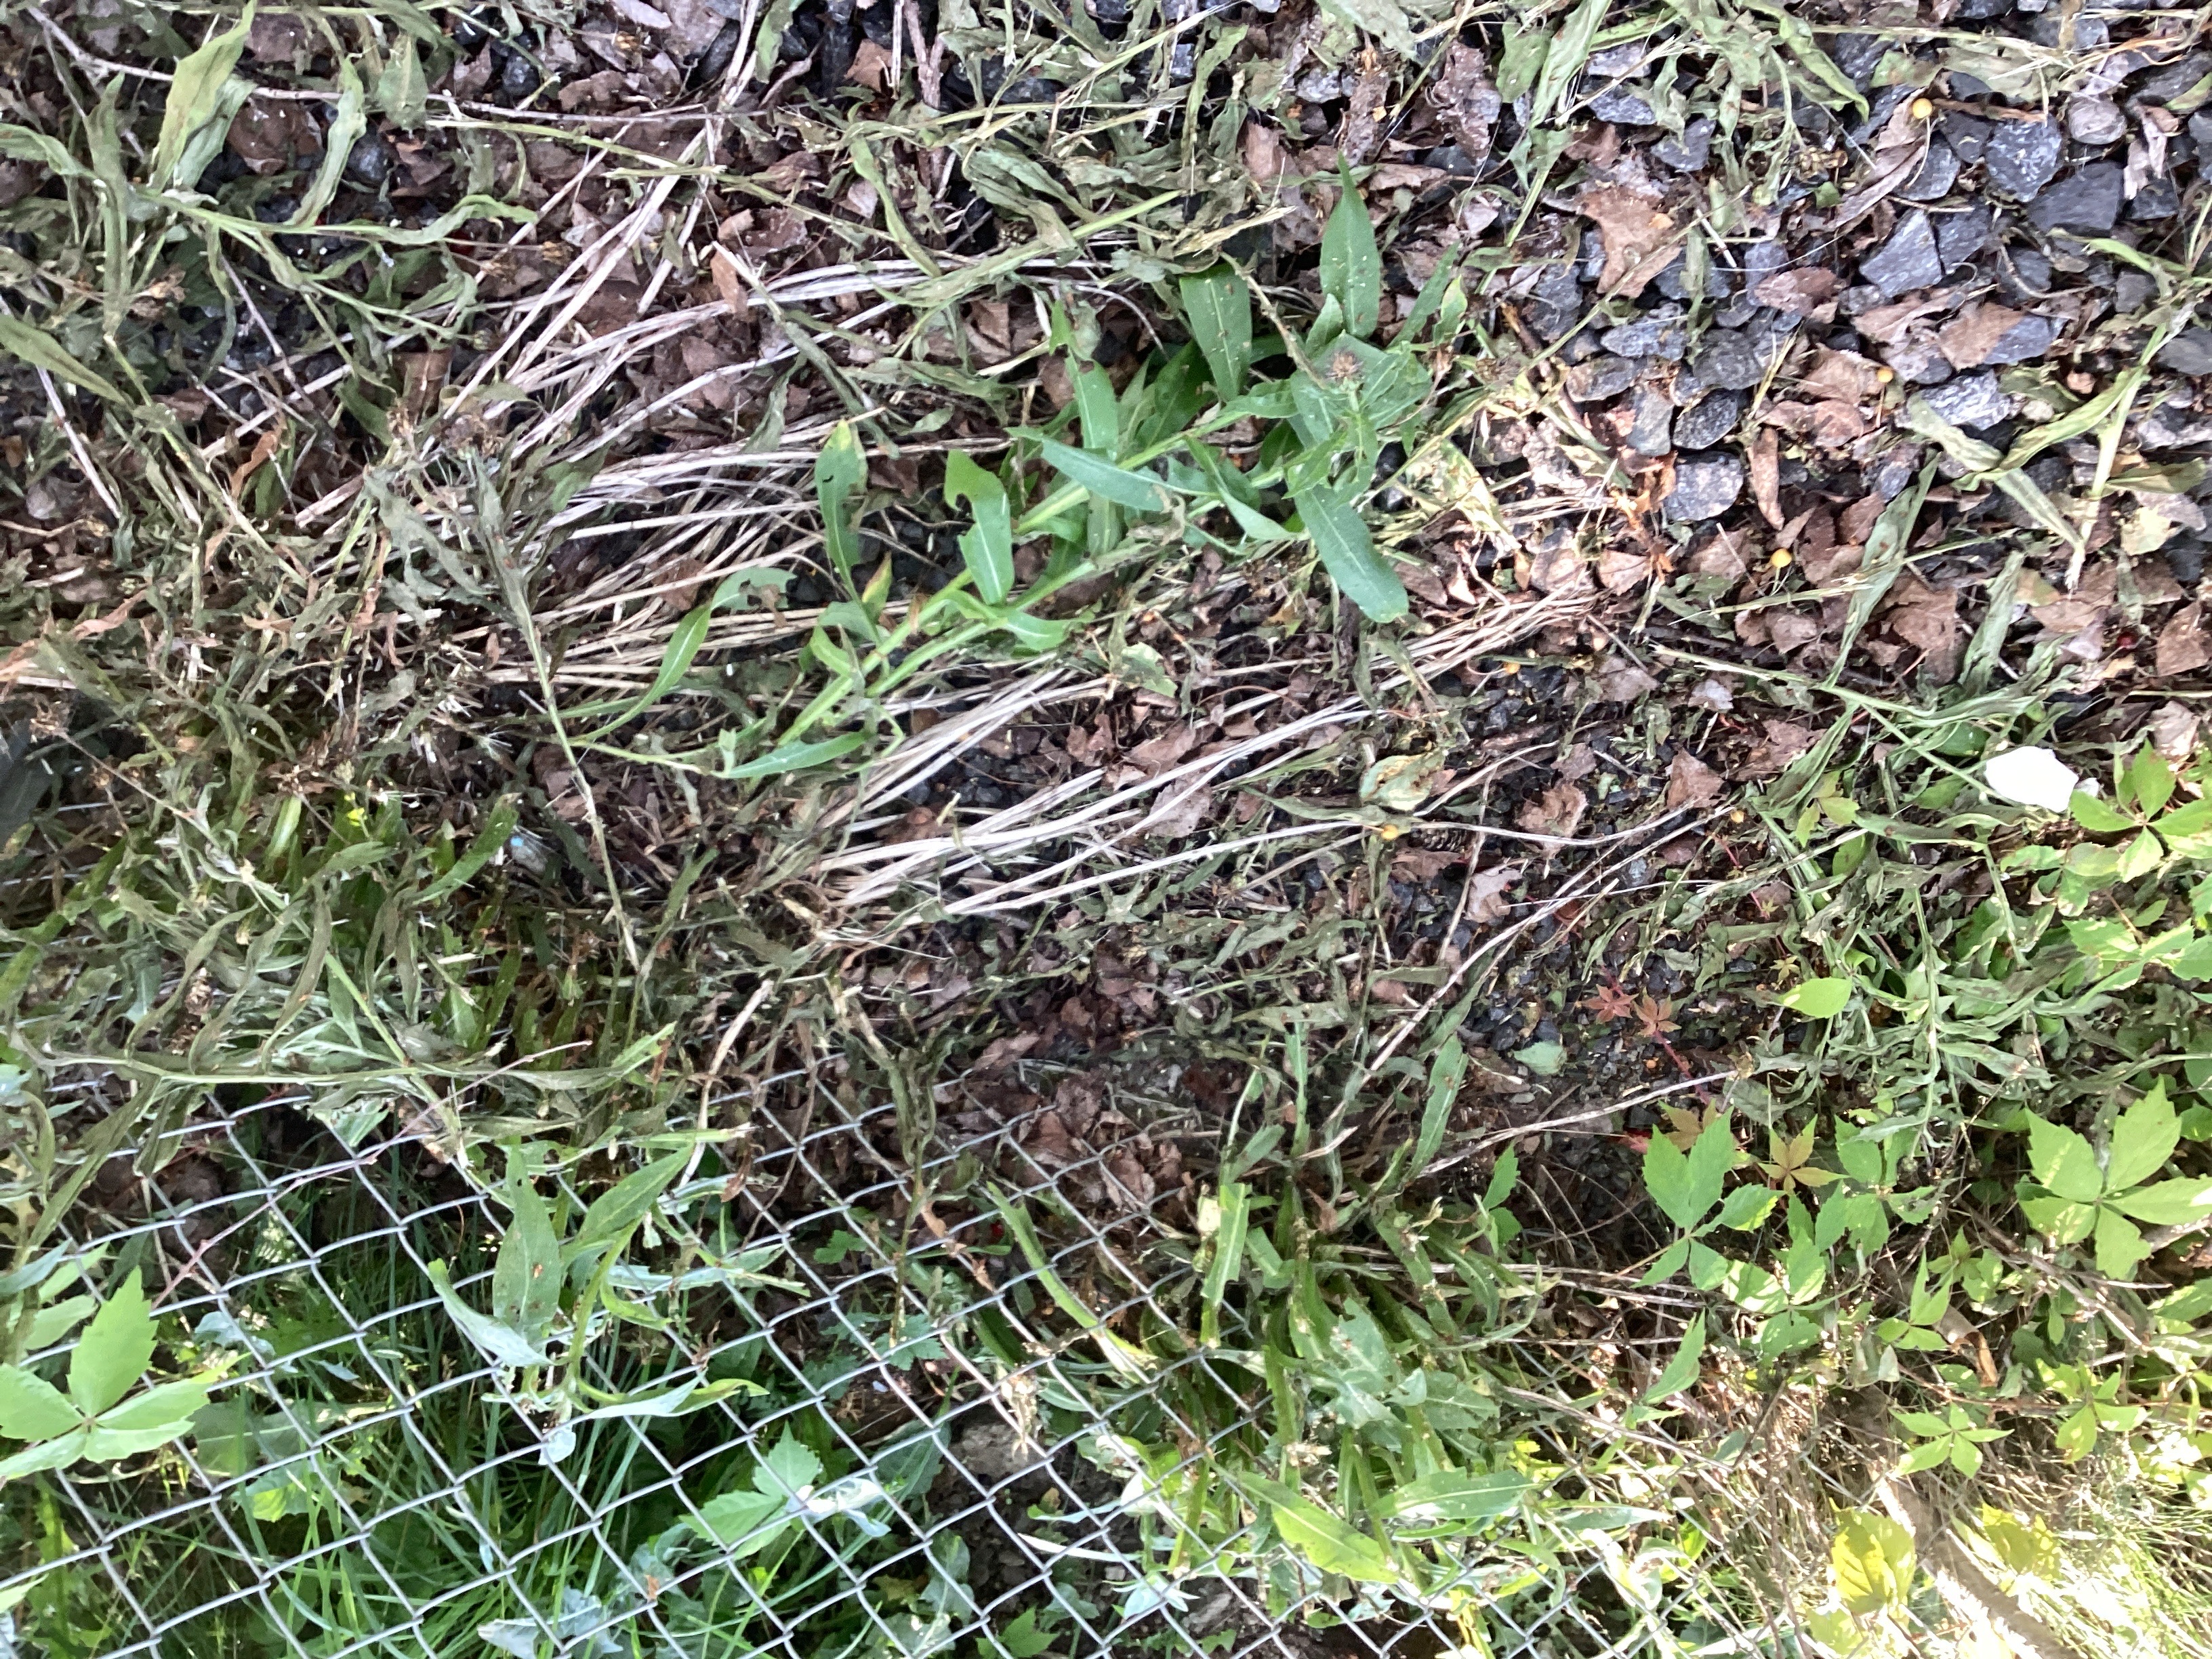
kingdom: Plantae
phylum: Tracheophyta
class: Magnoliopsida
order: Asterales
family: Asteraceae
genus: Centaurea
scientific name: Centaurea montana
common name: honningknoppurt
